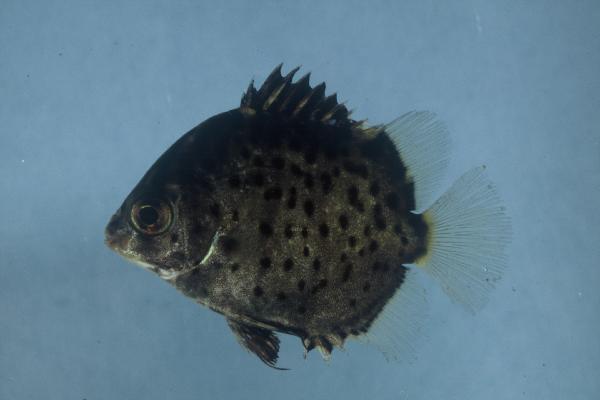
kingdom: Animalia
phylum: Chordata
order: Perciformes
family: Scatophagidae
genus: Scatophagus
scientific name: Scatophagus argus
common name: Spotted scat
